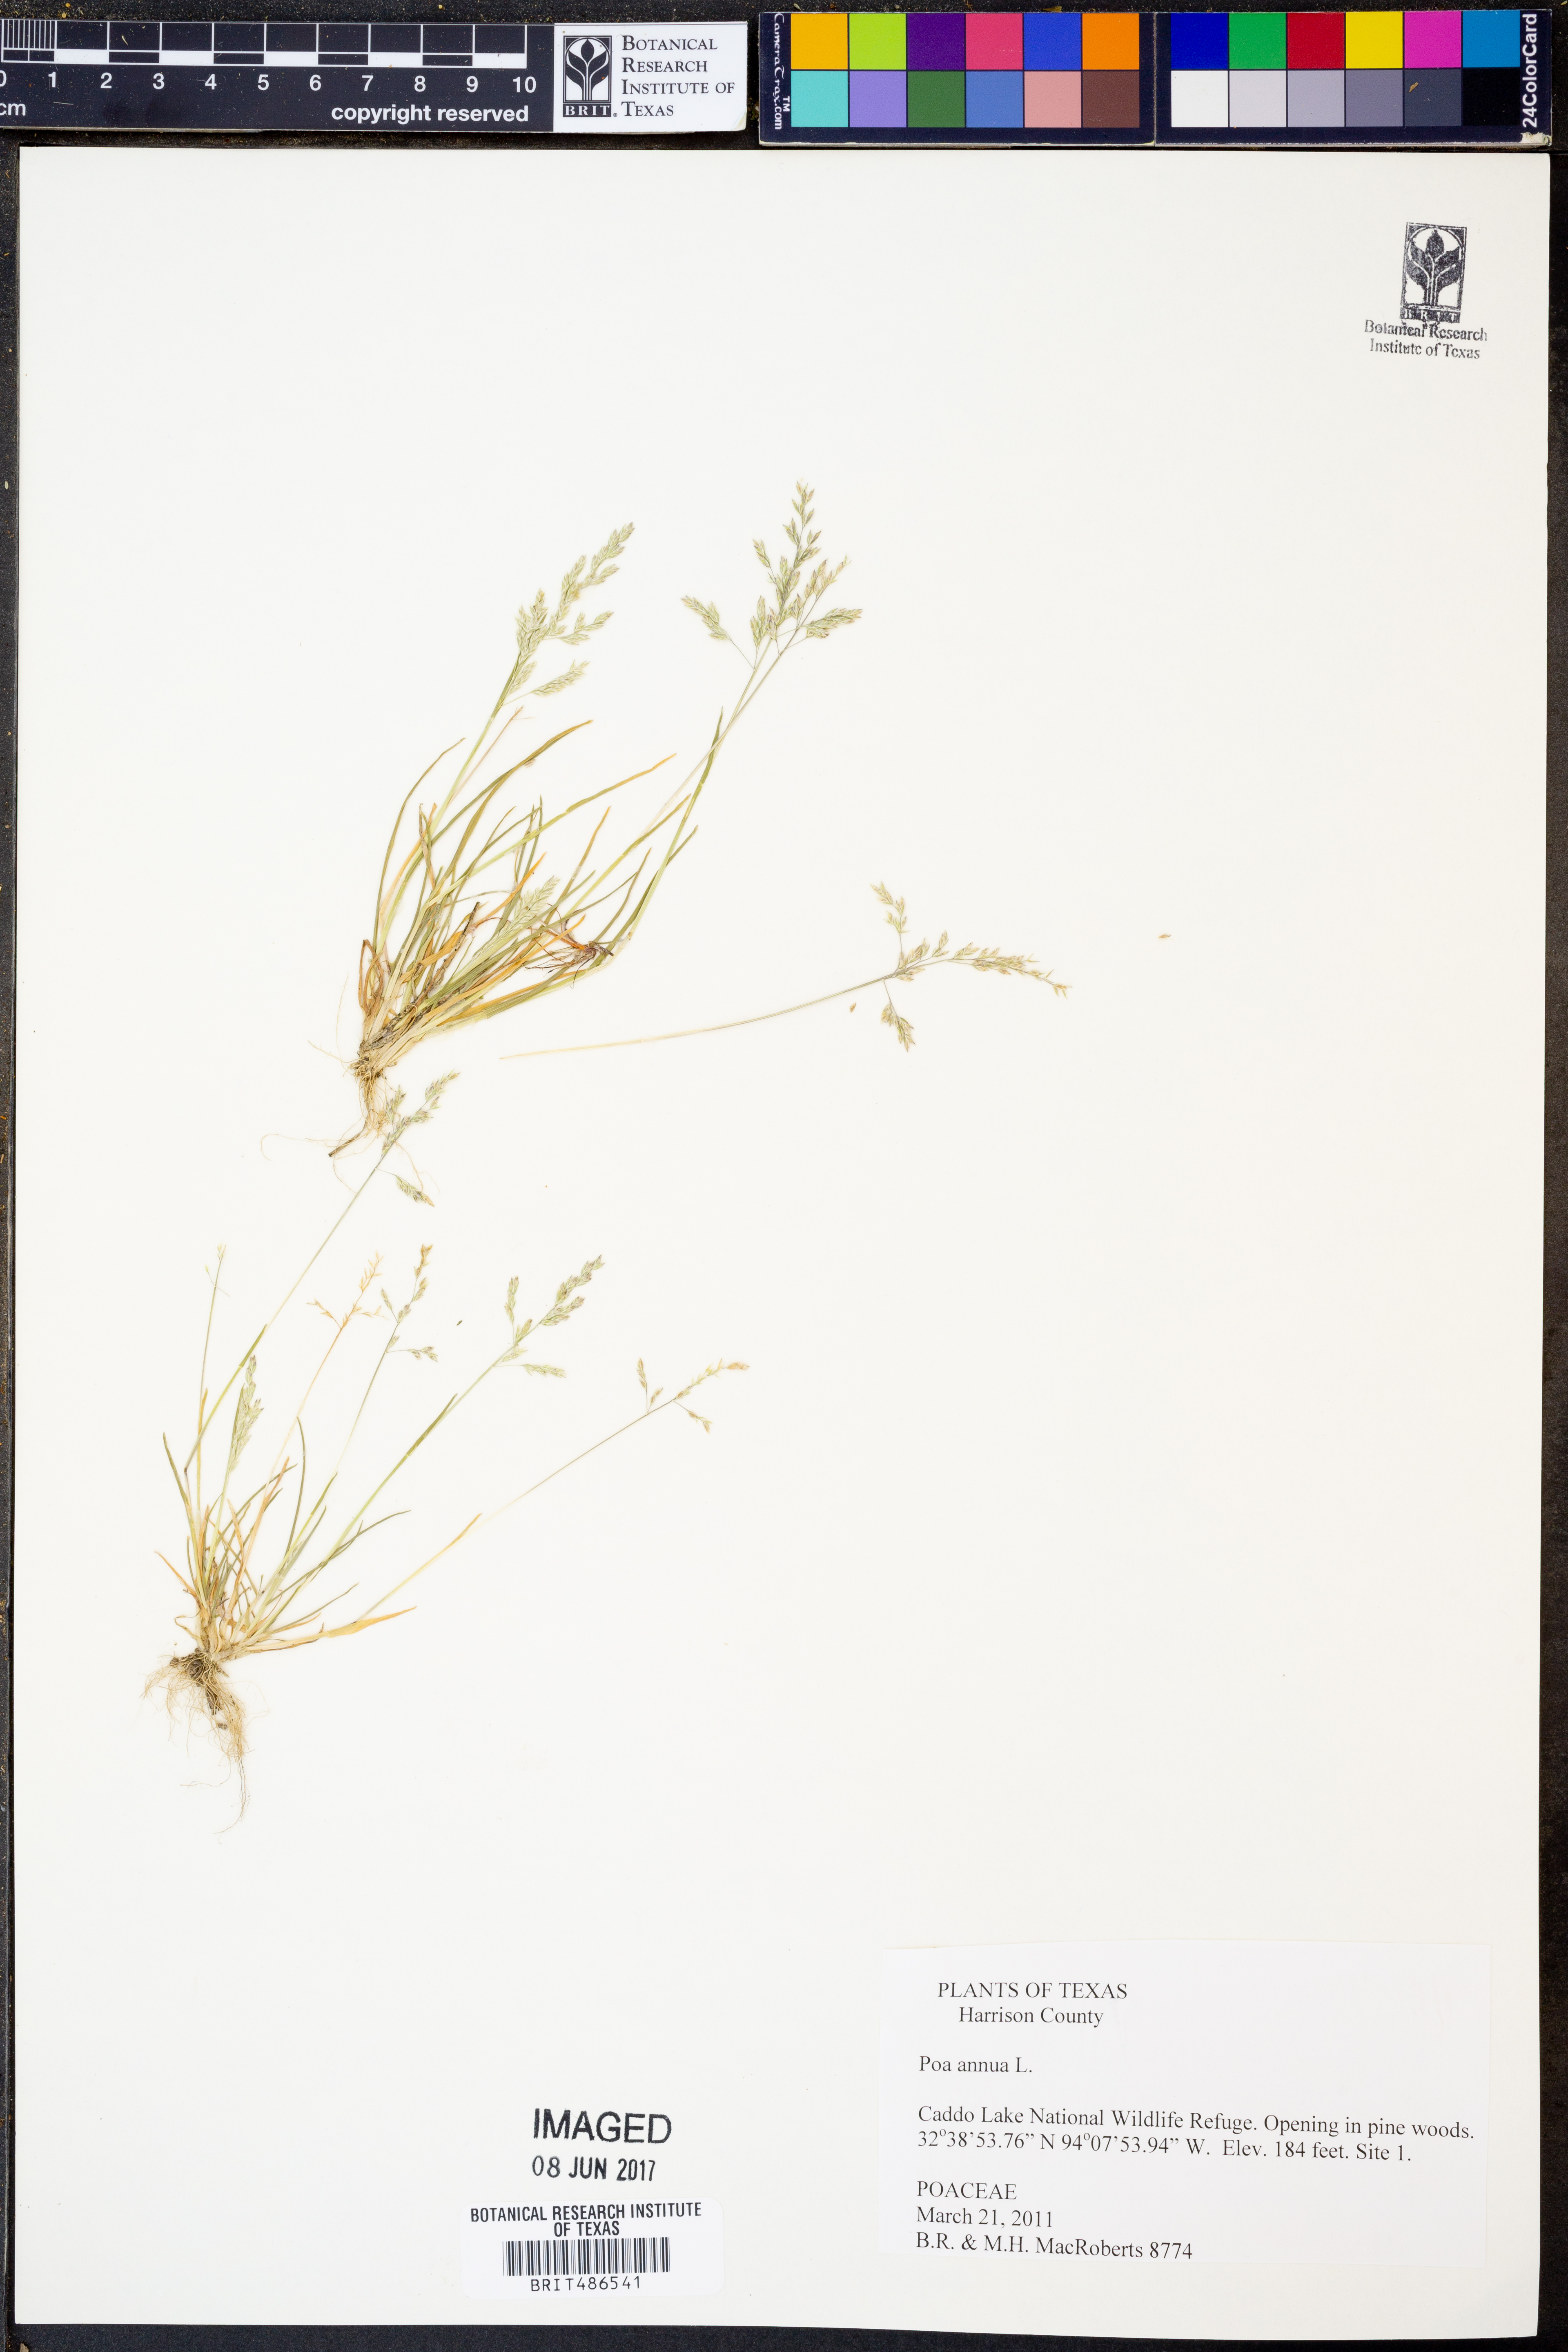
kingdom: Plantae
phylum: Tracheophyta
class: Liliopsida
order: Poales
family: Poaceae
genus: Poa
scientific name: Poa annua
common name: Annual bluegrass
